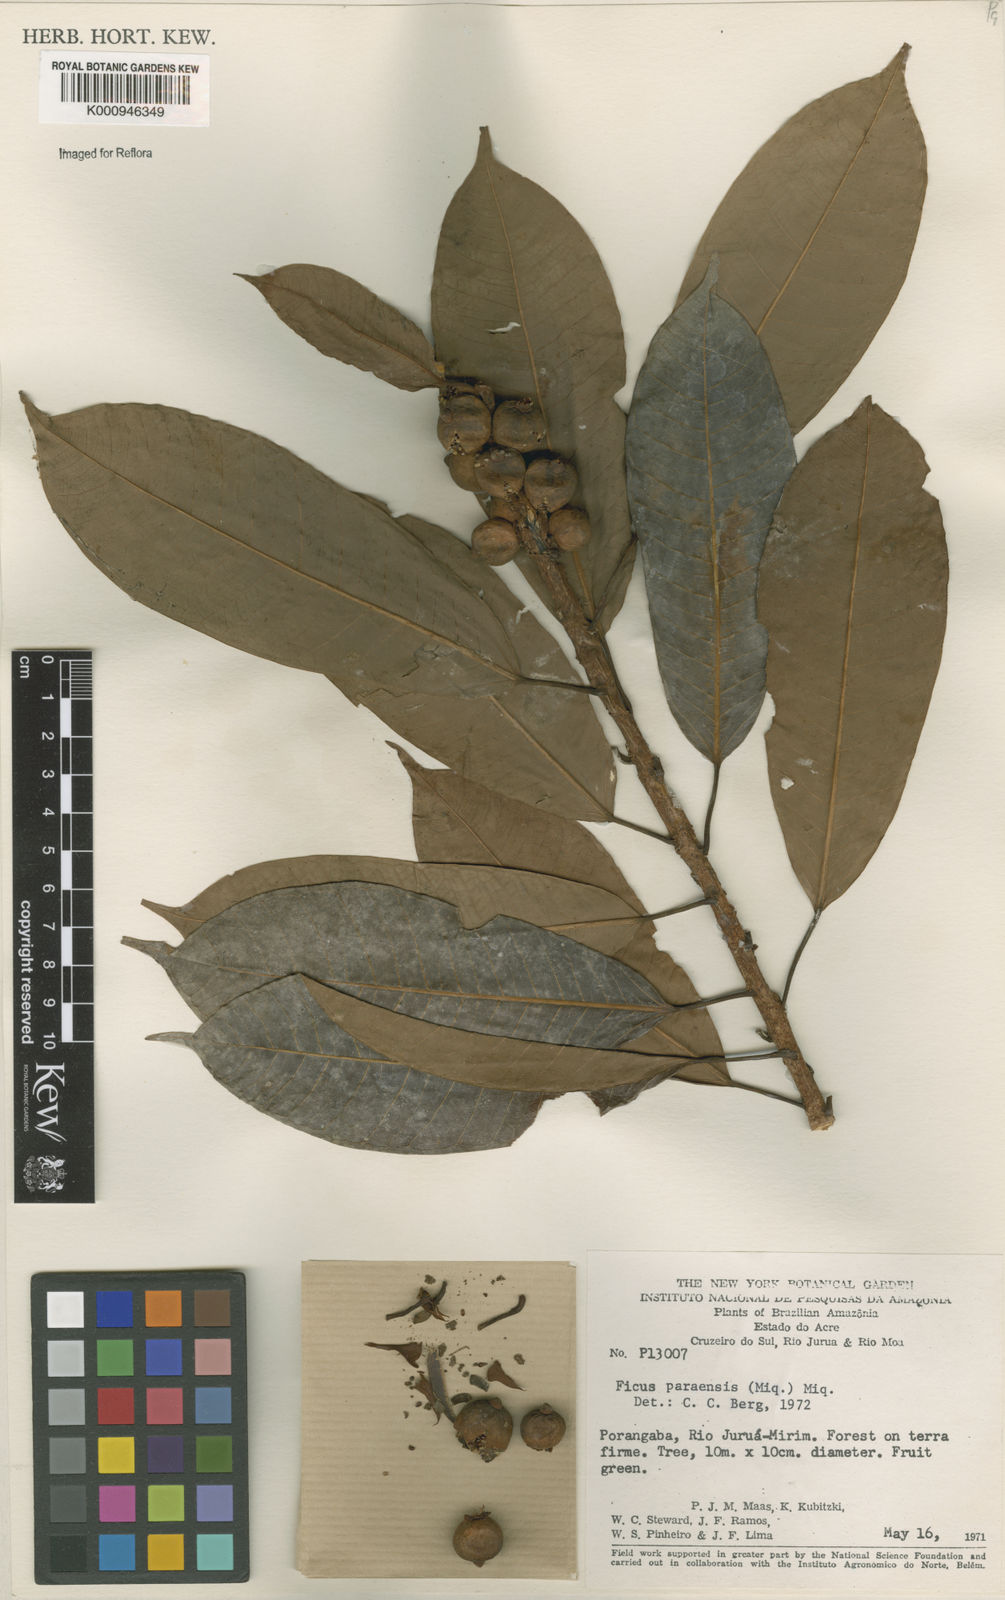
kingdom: Plantae
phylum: Tracheophyta
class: Magnoliopsida
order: Rosales
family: Moraceae
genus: Ficus
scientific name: Ficus paraensis
